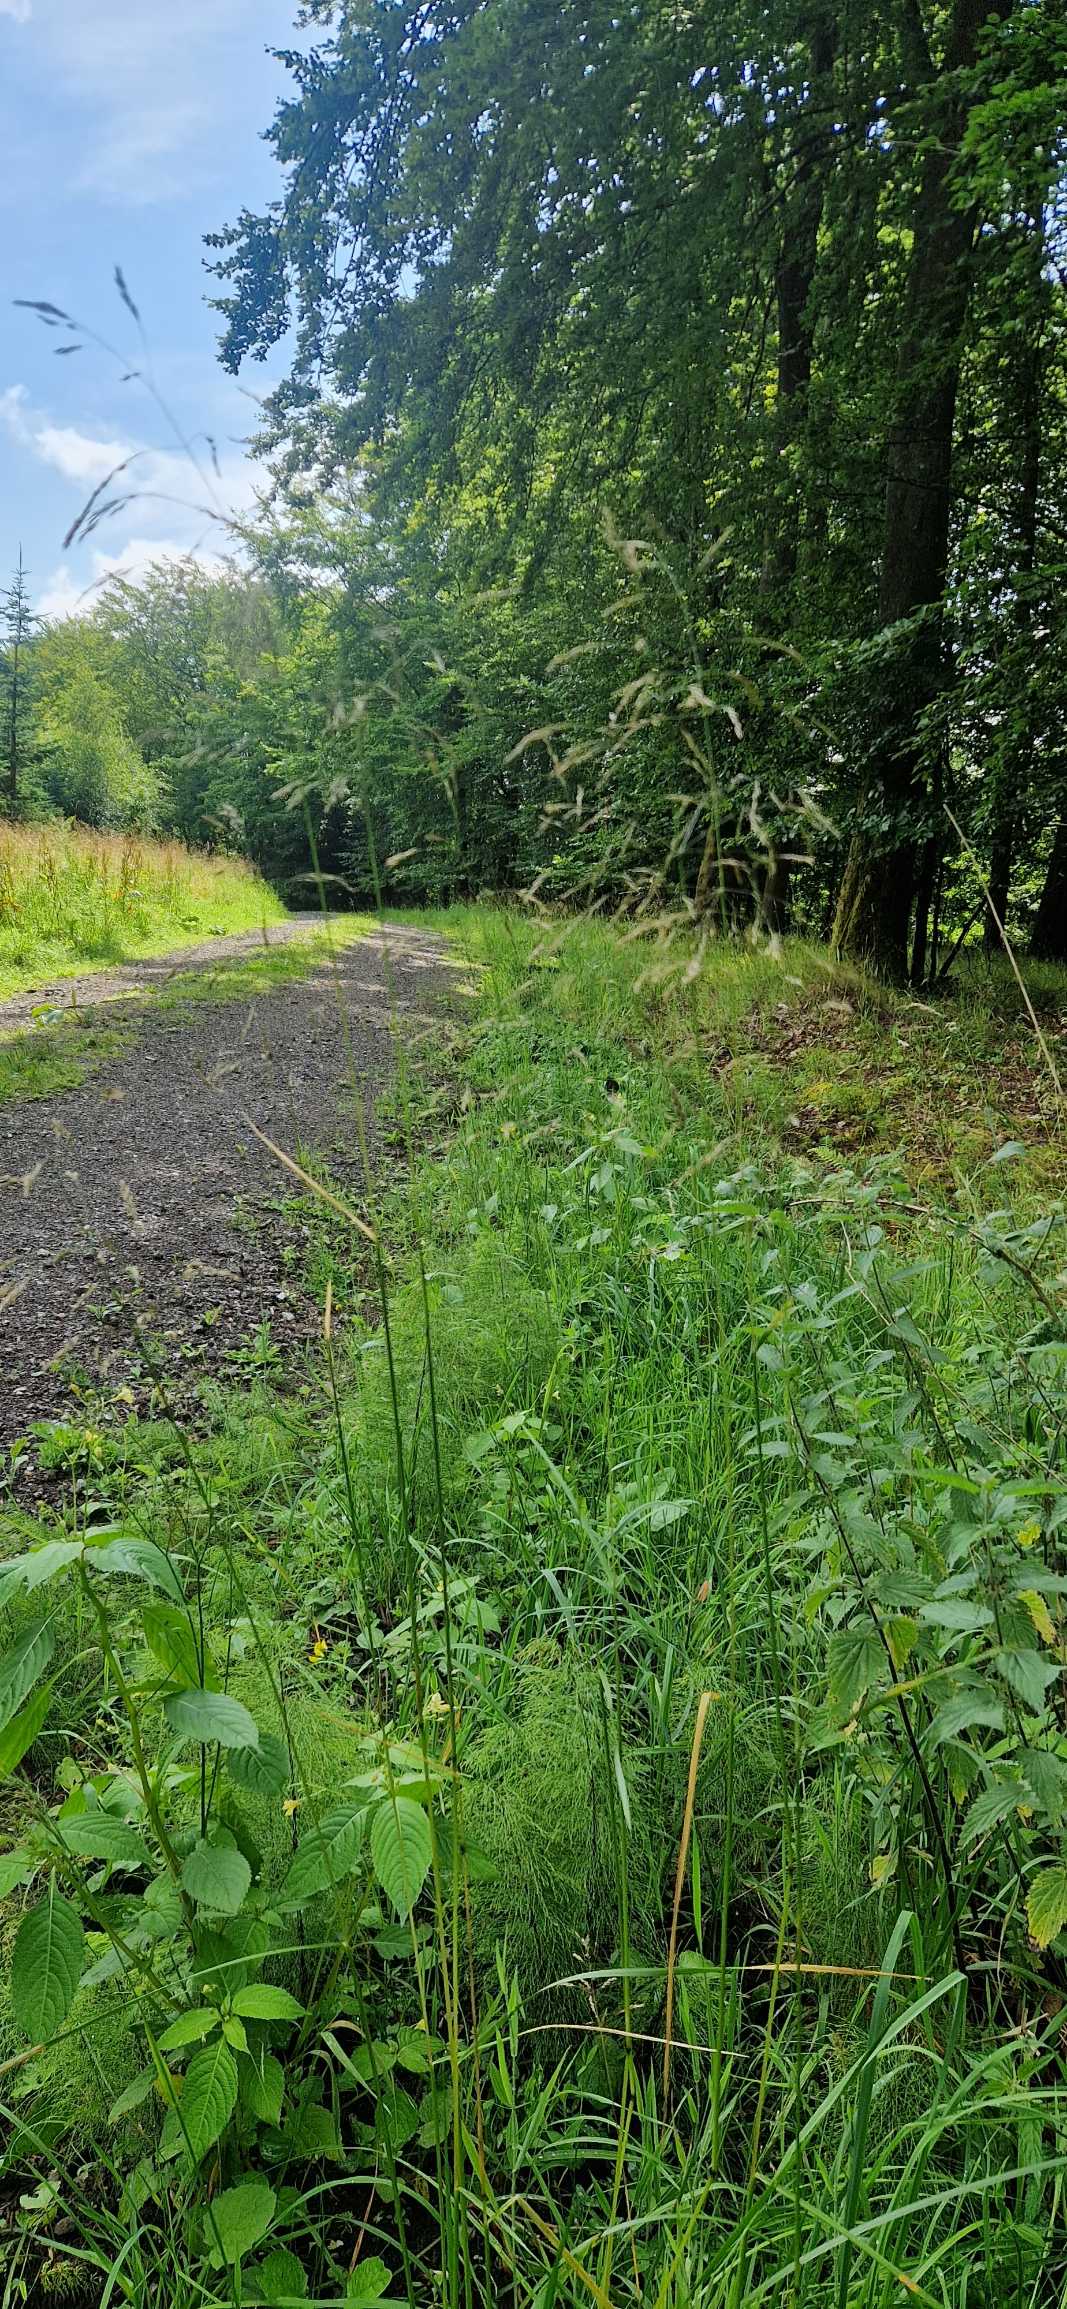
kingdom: Plantae
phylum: Tracheophyta
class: Liliopsida
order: Poales
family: Poaceae
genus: Deschampsia
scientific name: Deschampsia cespitosa
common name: Mose-bunke
